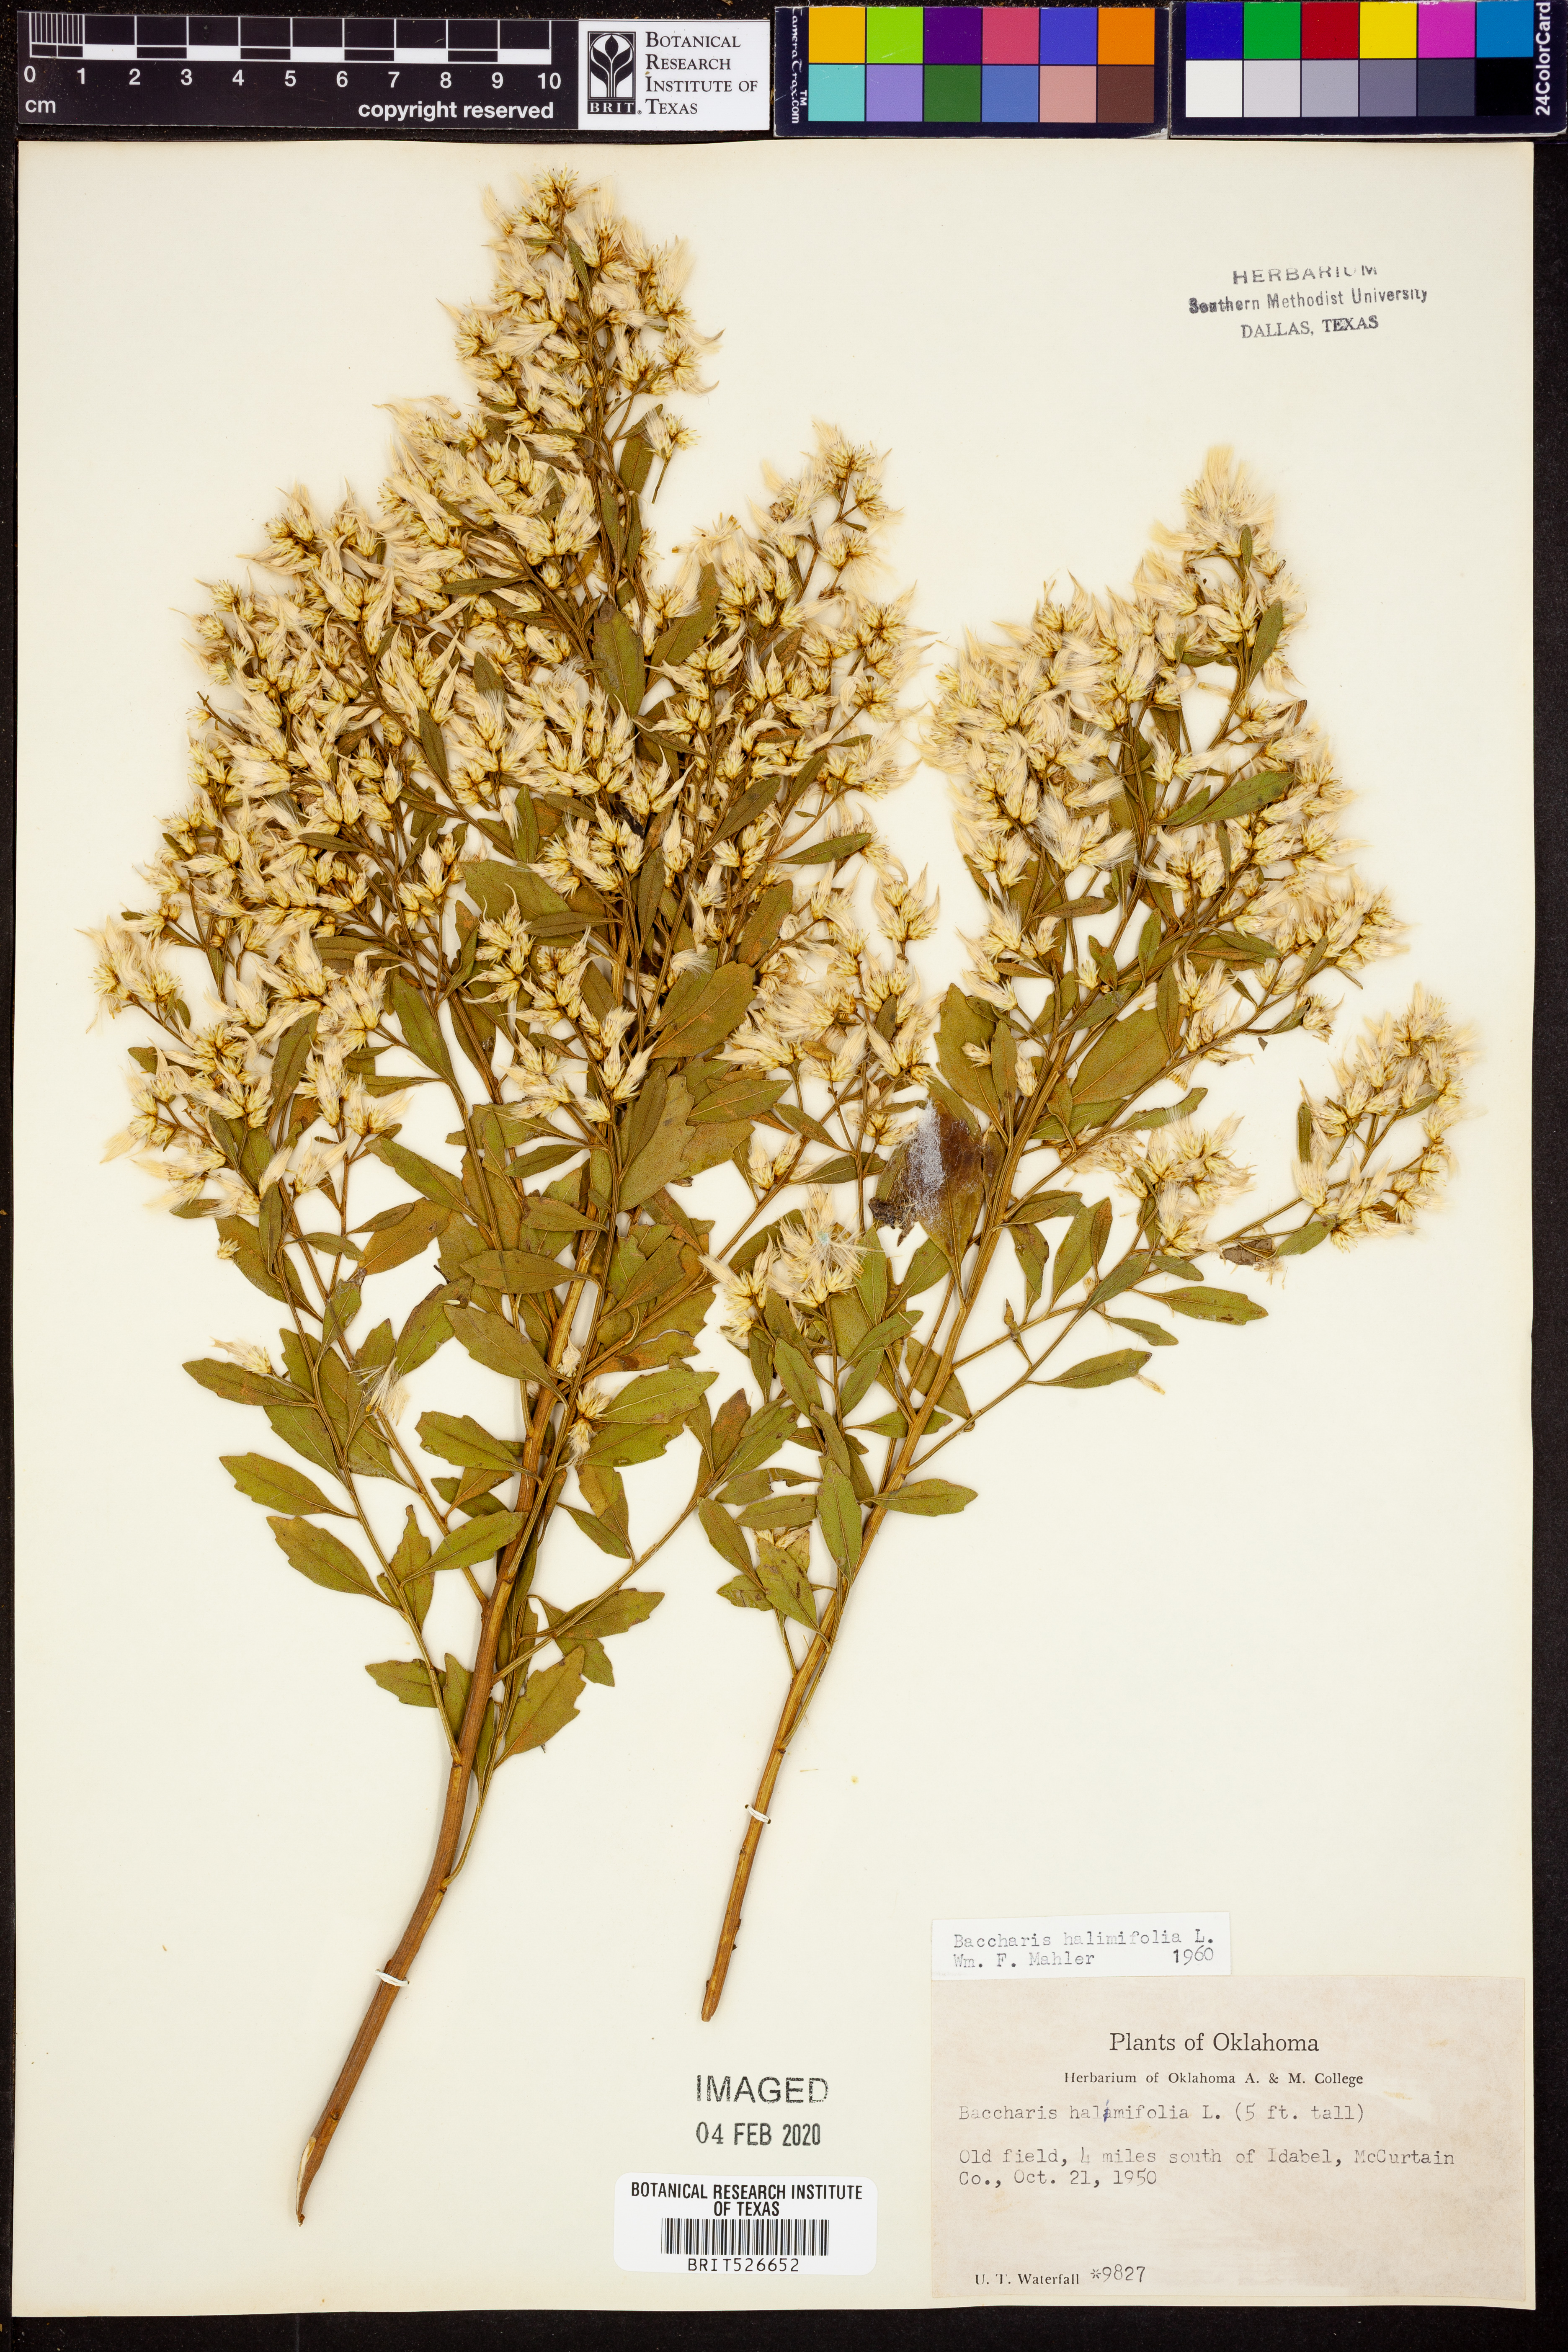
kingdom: Plantae
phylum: Tracheophyta
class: Magnoliopsida
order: Asterales
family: Asteraceae
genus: Nidorella
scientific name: Nidorella ivifolia
